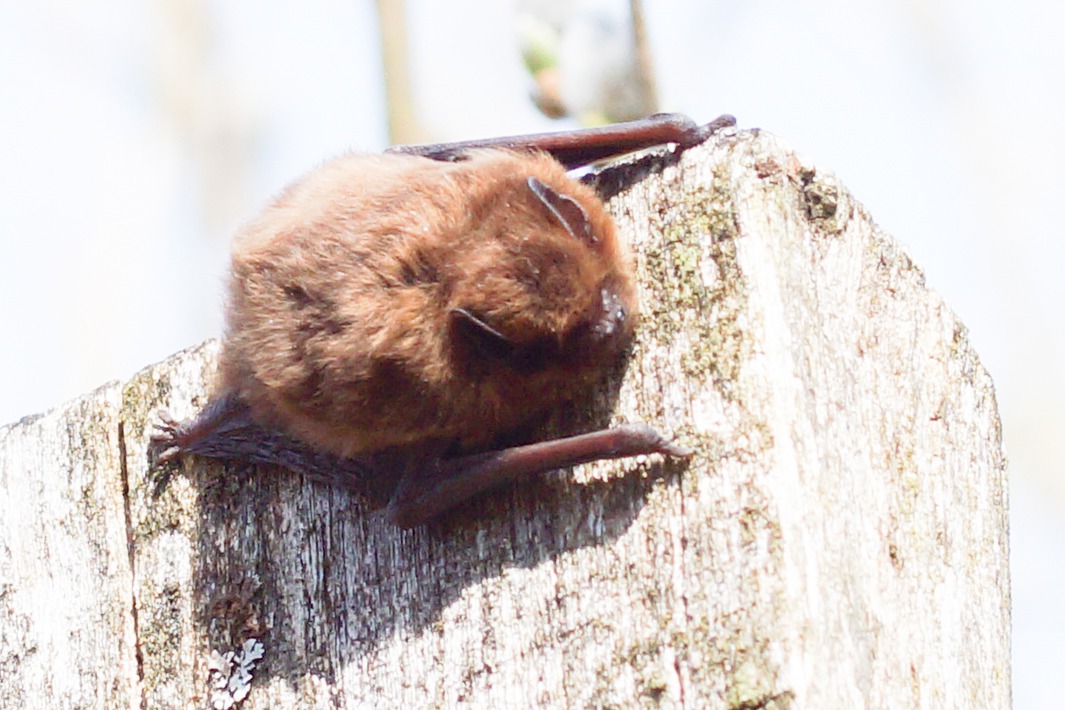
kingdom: Animalia
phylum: Chordata
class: Mammalia
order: Chiroptera
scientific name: Chiroptera
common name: Flagermus
